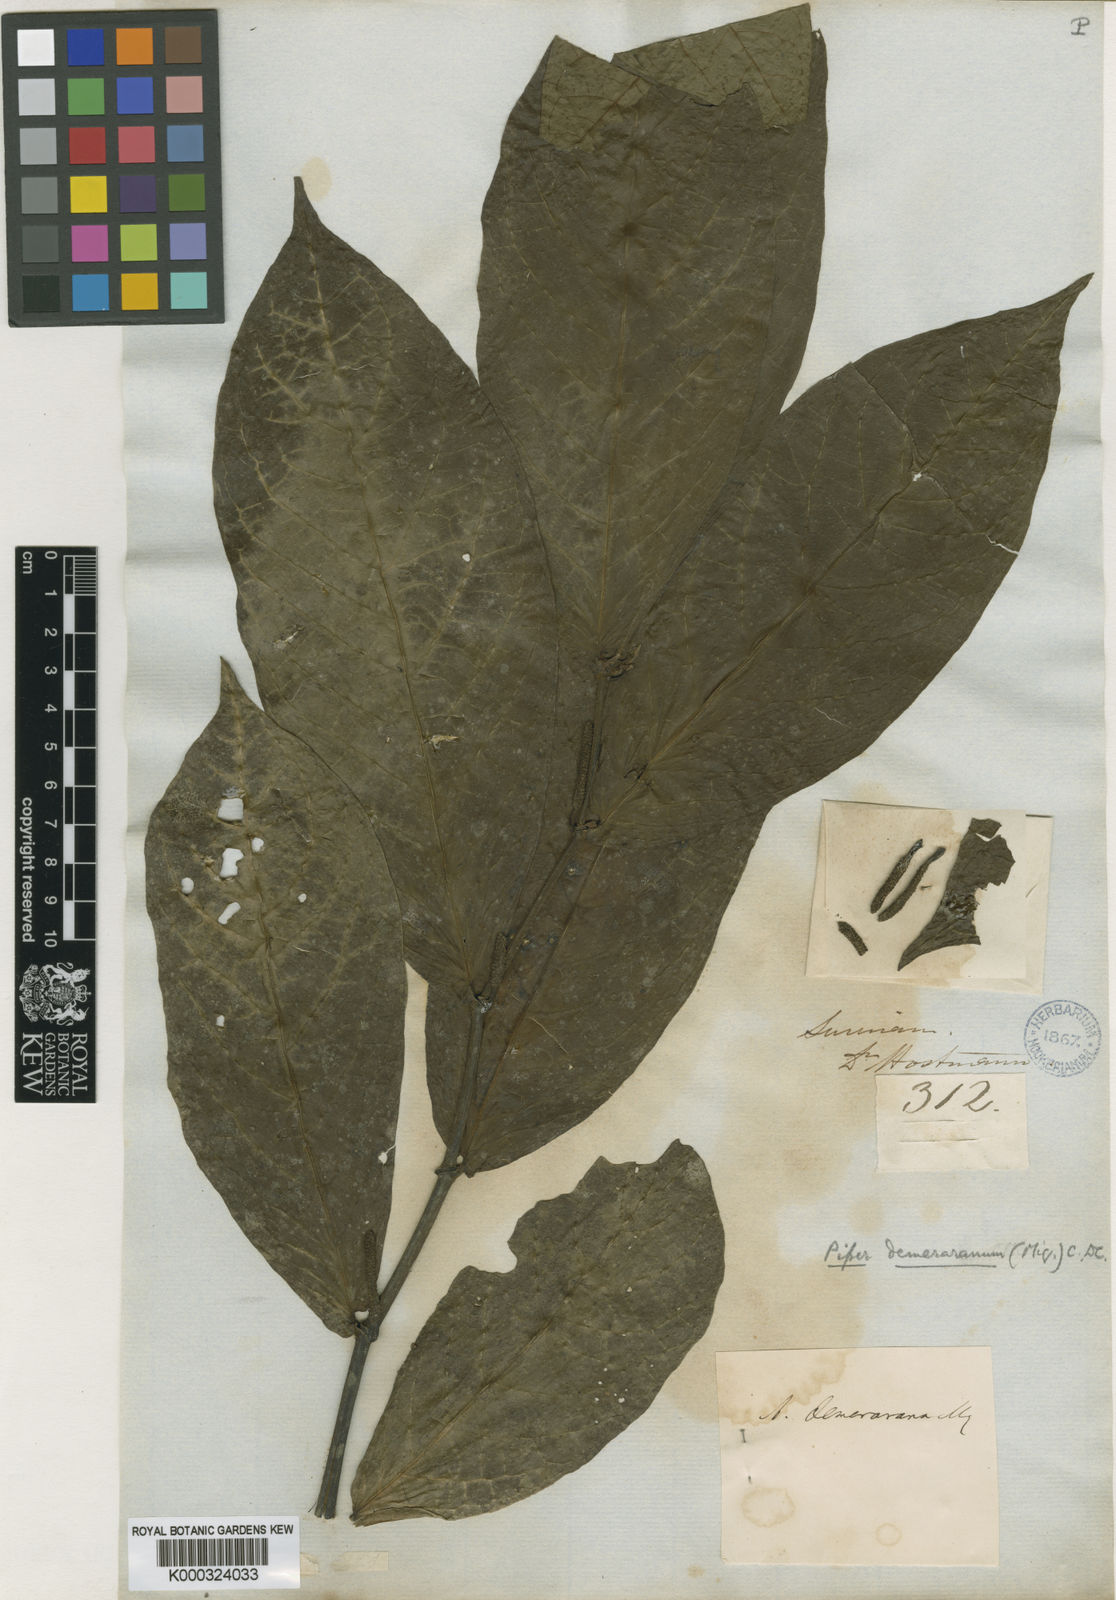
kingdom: Plantae
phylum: Tracheophyta
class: Magnoliopsida
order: Piperales
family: Piperaceae
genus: Piper
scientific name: Piper demeraranum
